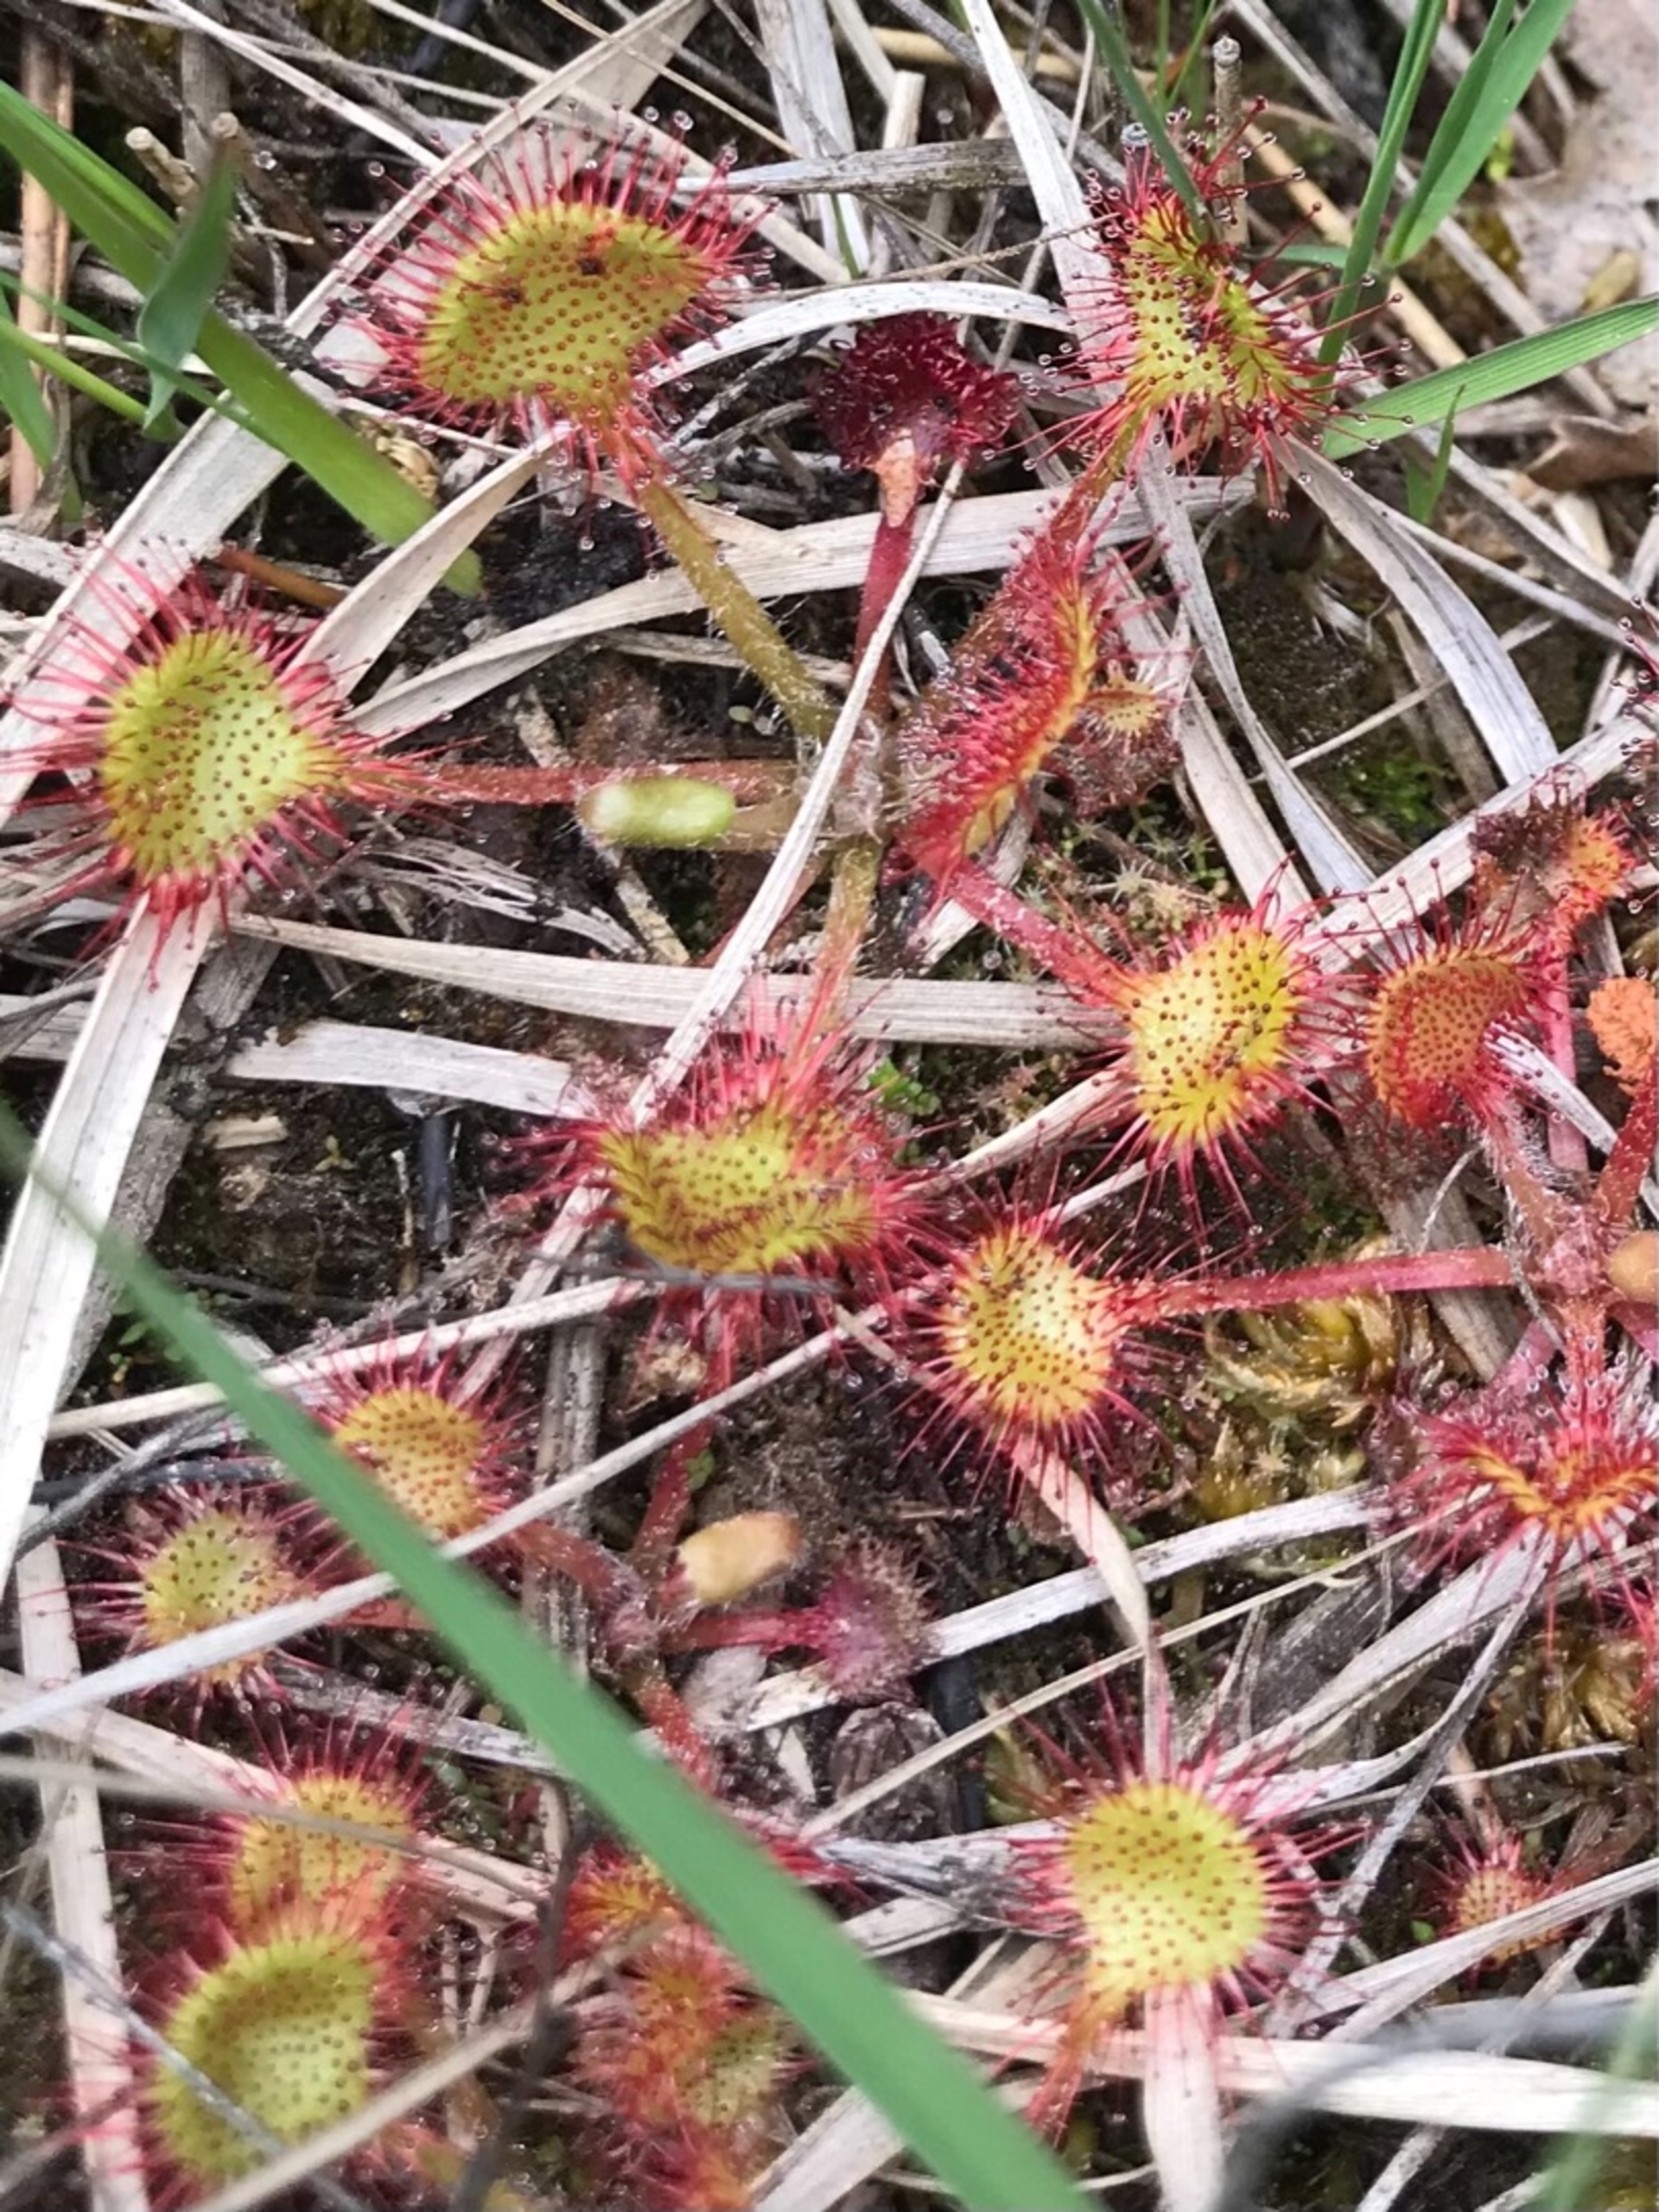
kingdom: Plantae
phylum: Tracheophyta
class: Magnoliopsida
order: Caryophyllales
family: Droseraceae
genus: Drosera
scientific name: Drosera rotundifolia
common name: Rundbladet soldug
